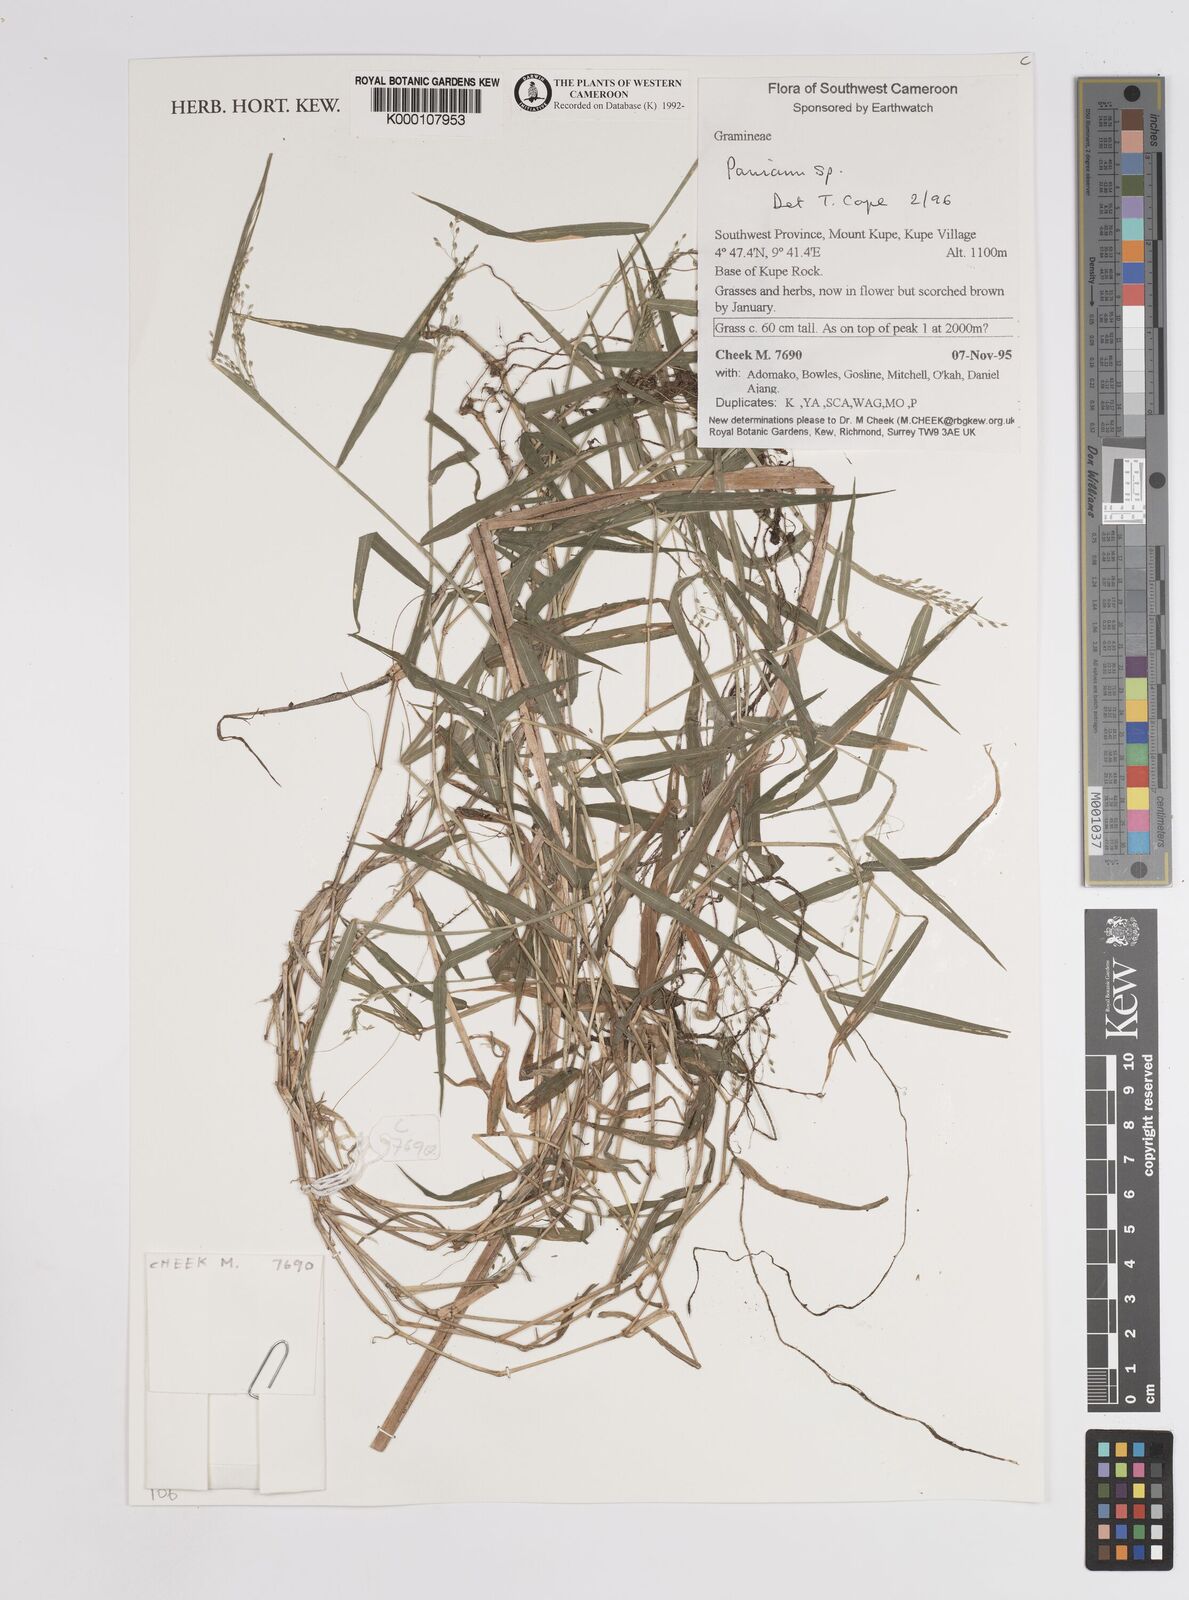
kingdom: Plantae
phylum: Tracheophyta
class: Liliopsida
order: Poales
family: Poaceae
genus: Panicum
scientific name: Panicum
